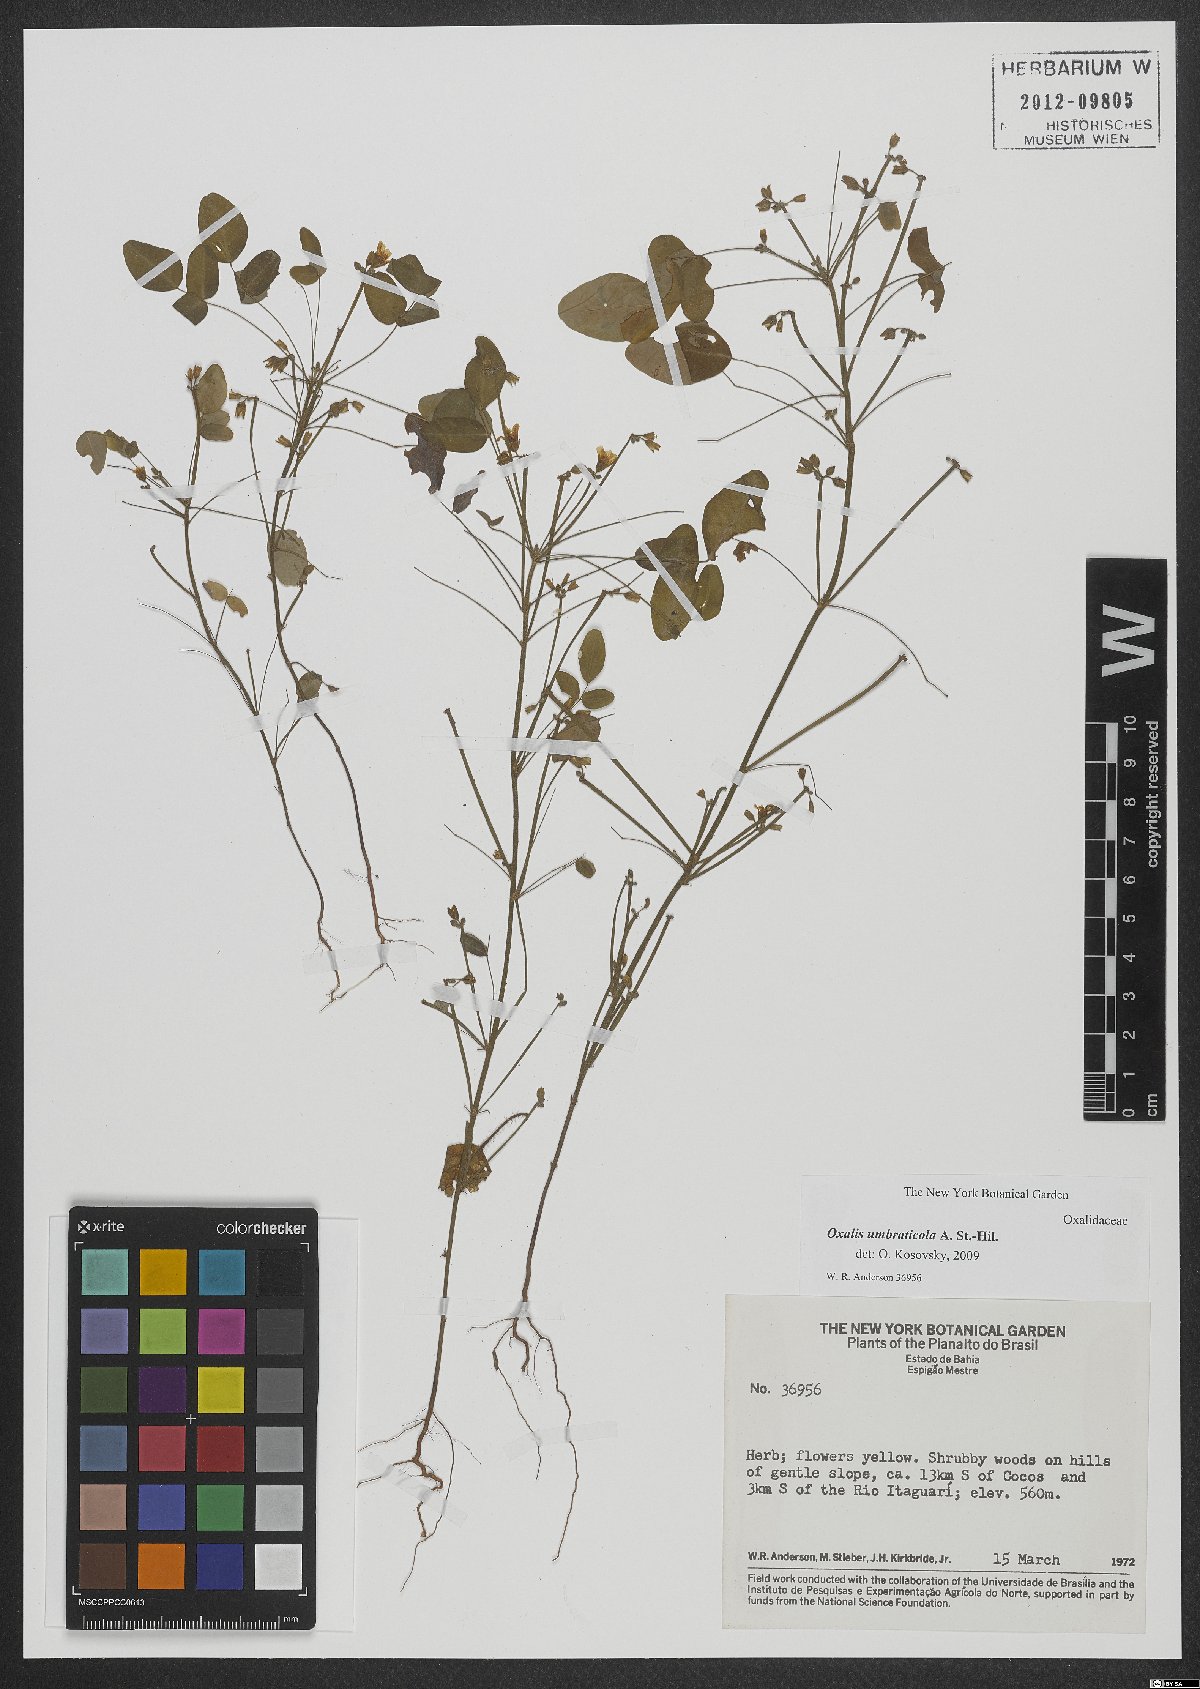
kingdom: Plantae
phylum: Tracheophyta
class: Magnoliopsida
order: Oxalidales
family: Oxalidaceae
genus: Oxalis
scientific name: Oxalis umbraticola
